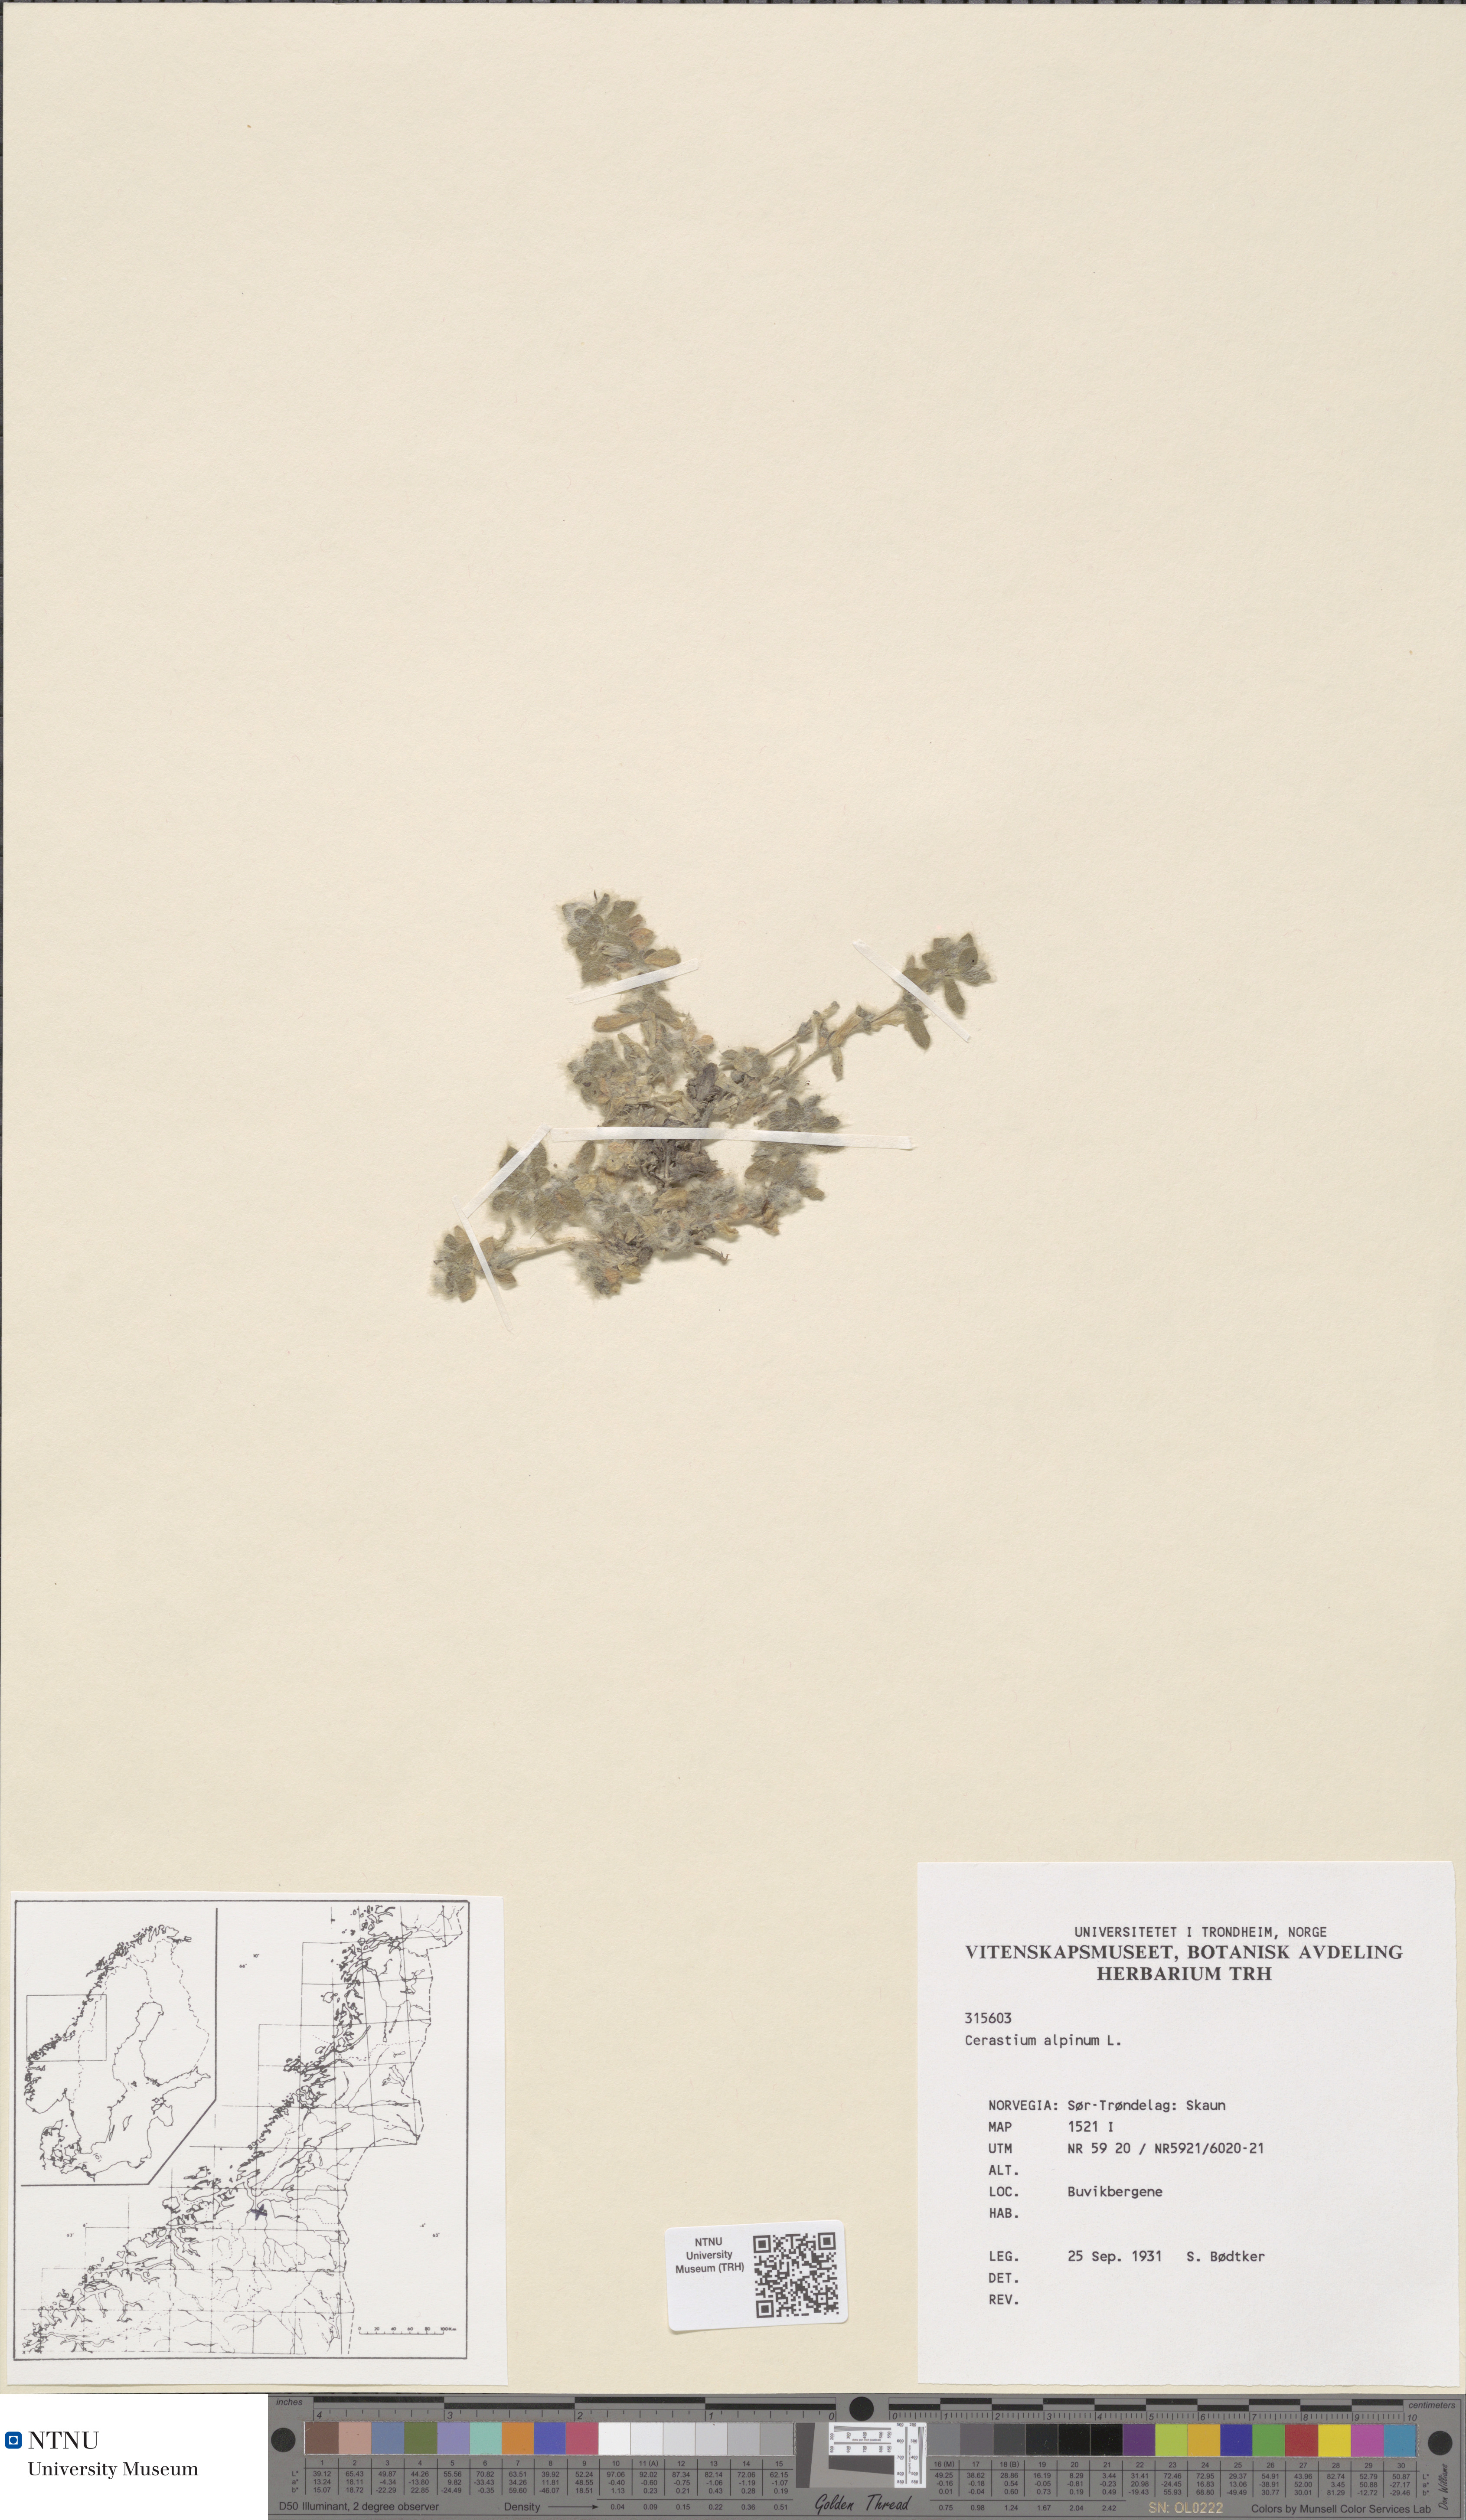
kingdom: Plantae
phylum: Tracheophyta
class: Magnoliopsida
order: Caryophyllales
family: Caryophyllaceae
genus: Cerastium
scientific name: Cerastium alpinum
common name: Alpine mouse-ear
